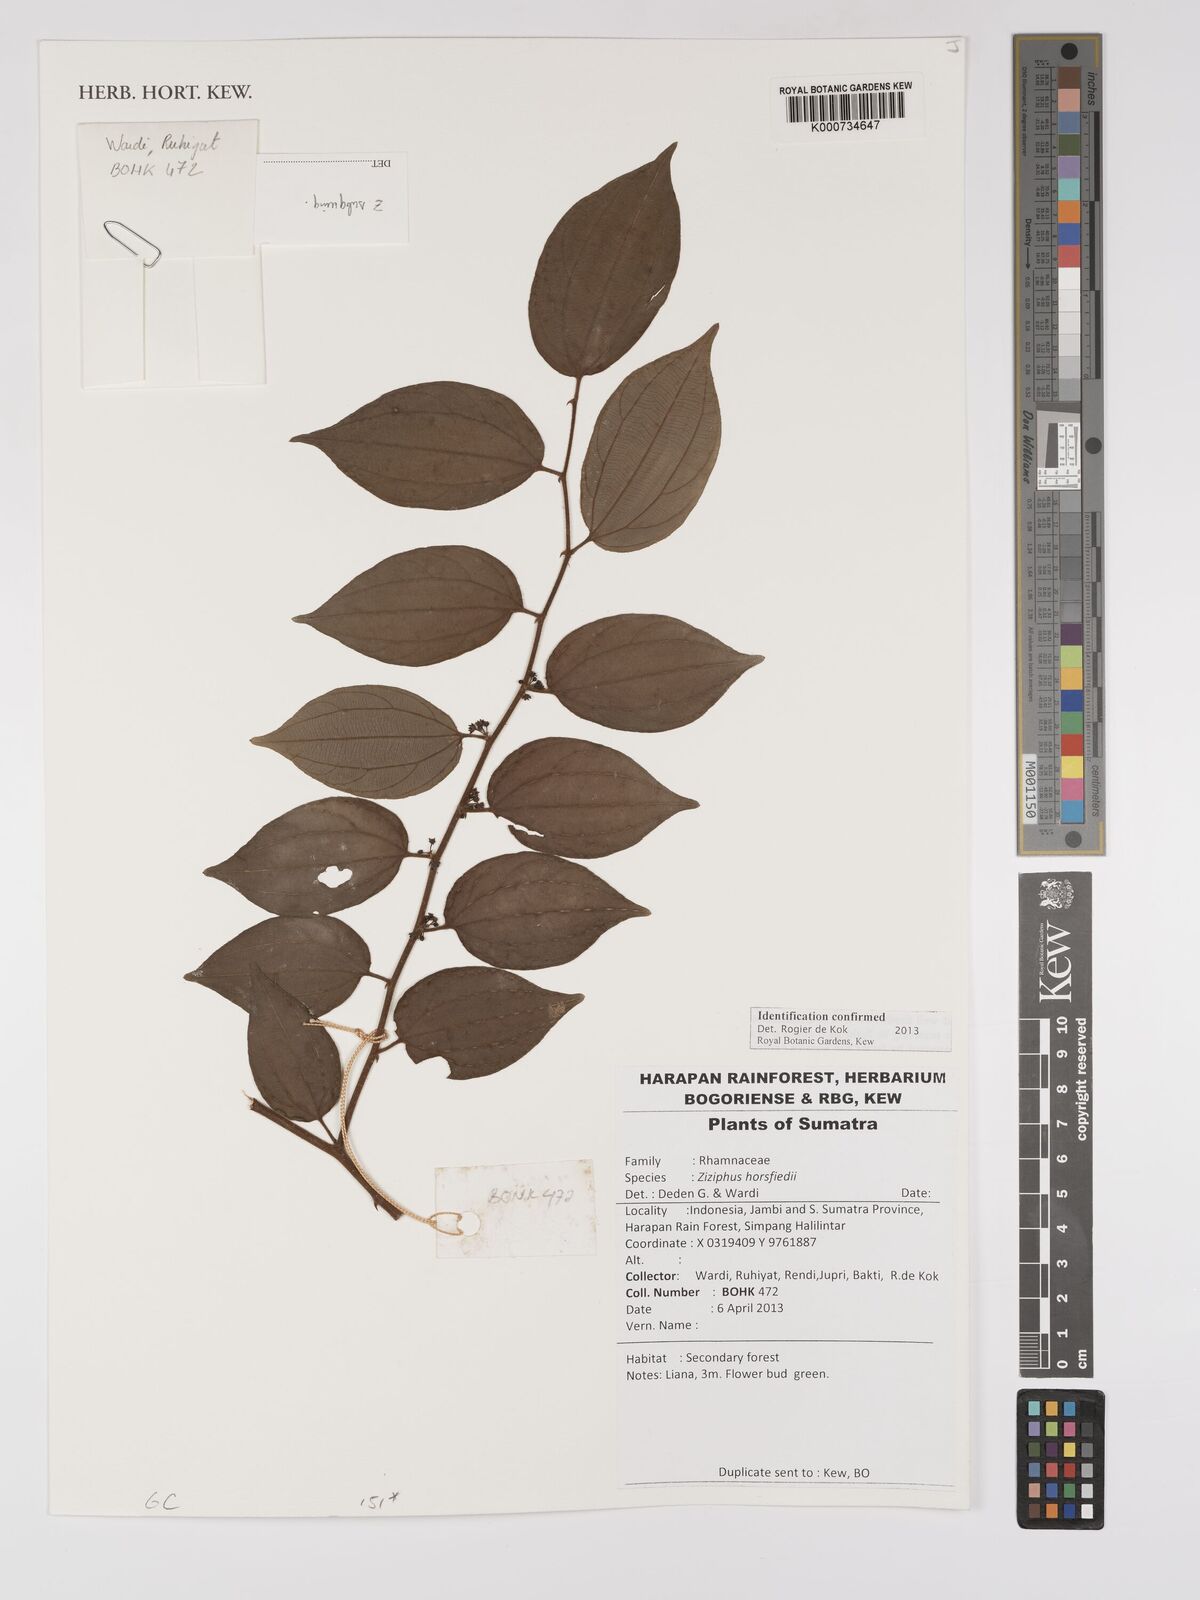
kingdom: Plantae
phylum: Tracheophyta
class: Magnoliopsida
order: Rosales
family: Rhamnaceae
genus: Ziziphus
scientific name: Ziziphus
